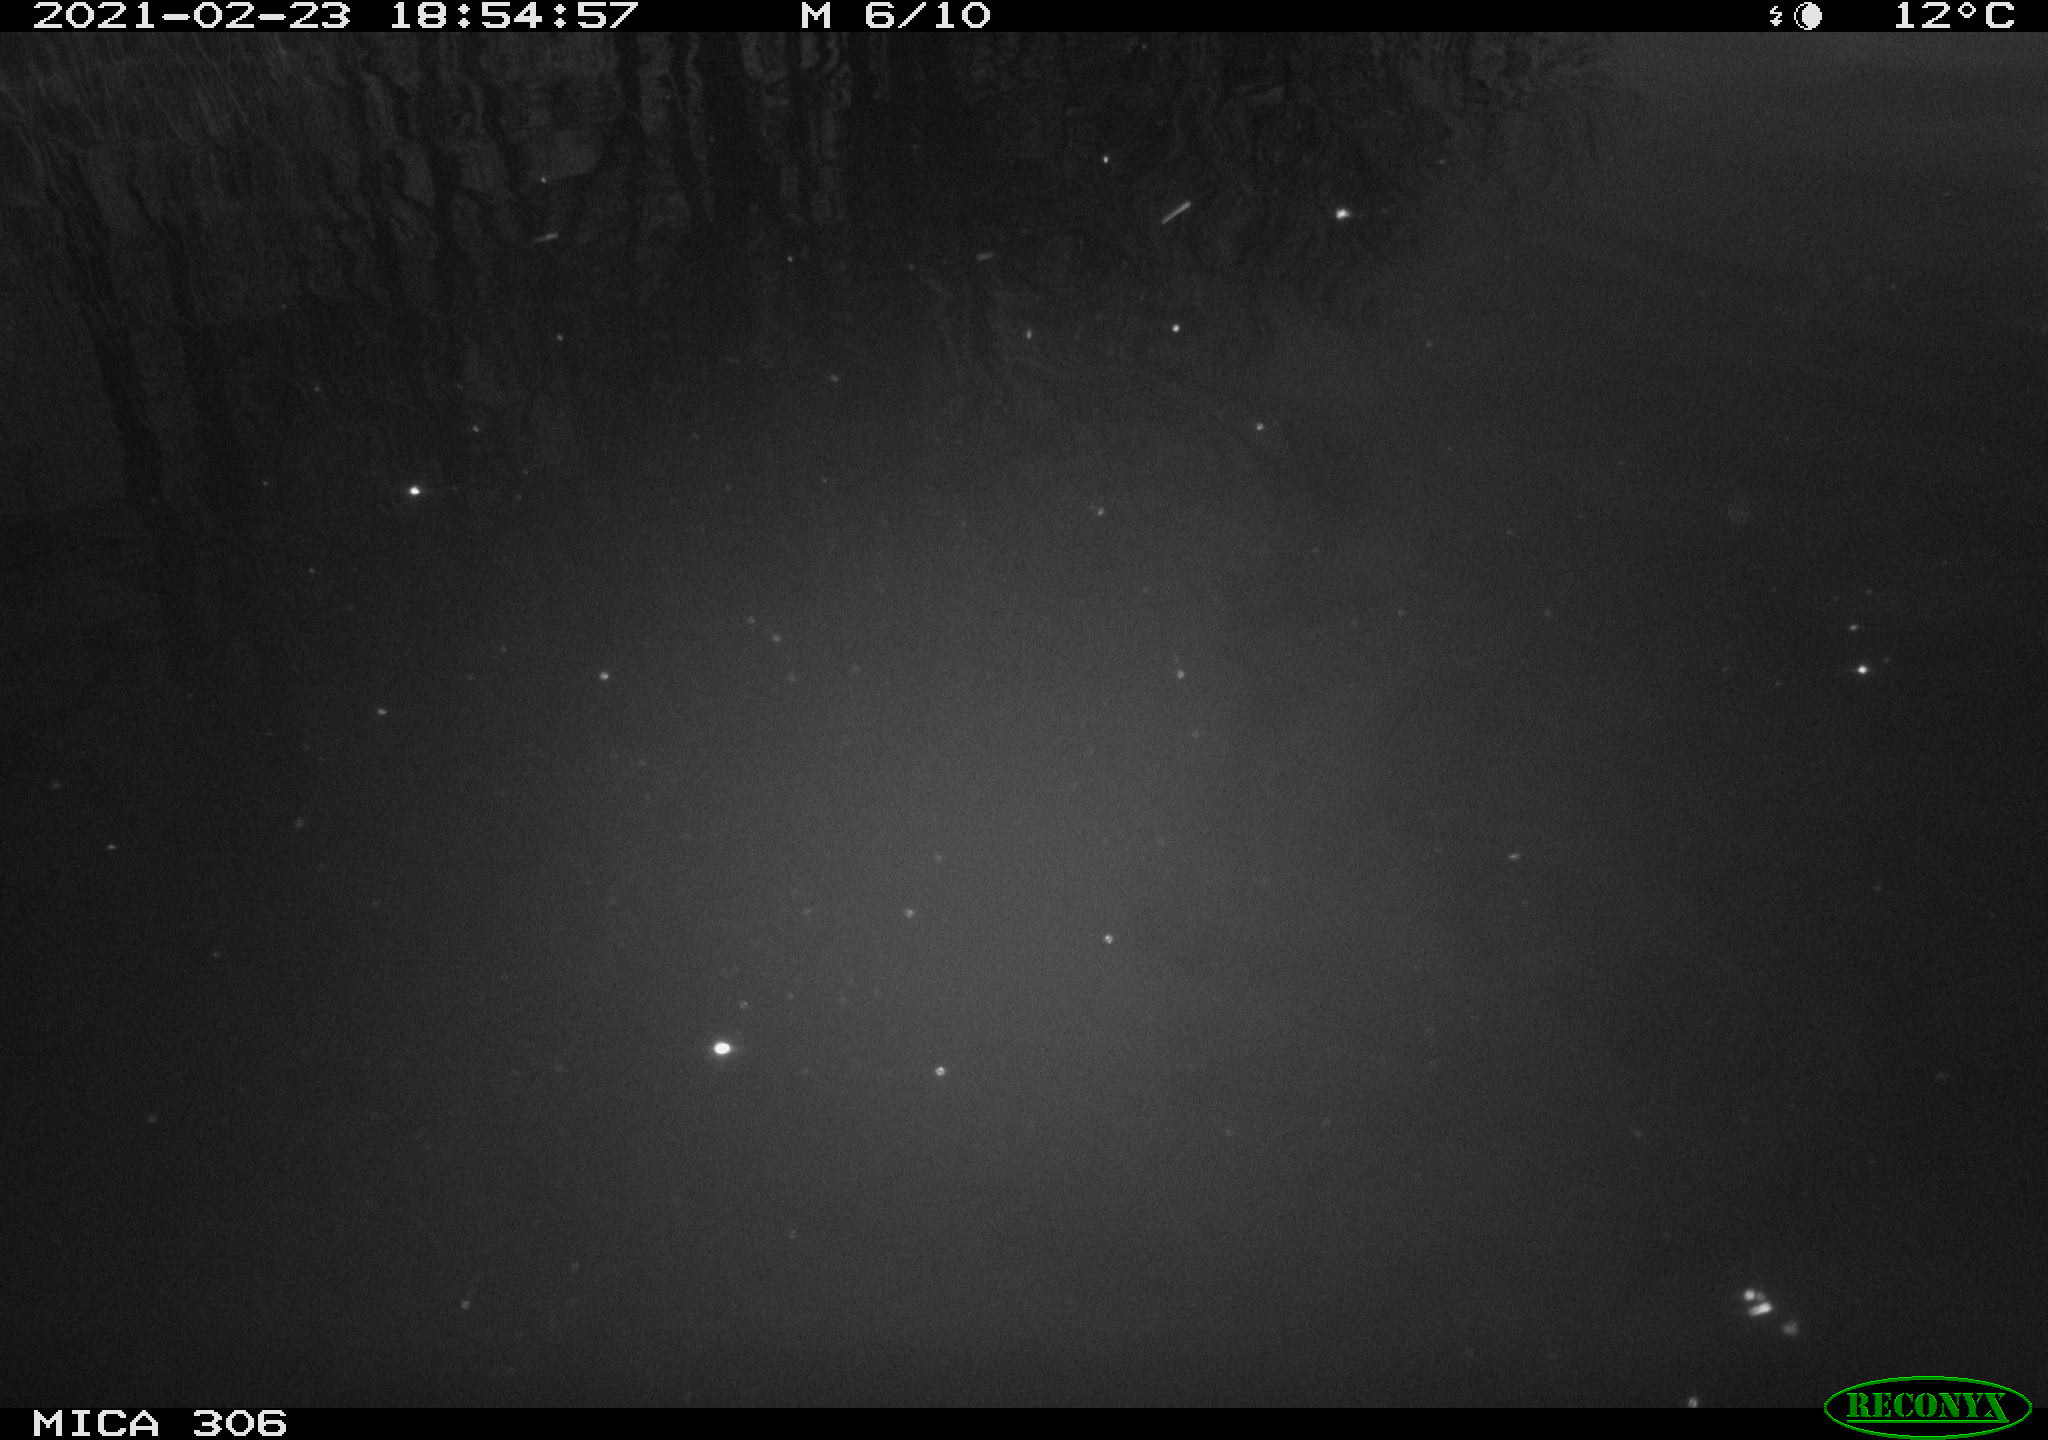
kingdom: Animalia
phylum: Chordata
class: Aves
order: Gruiformes
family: Rallidae
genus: Gallinula
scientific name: Gallinula chloropus
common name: Common moorhen
